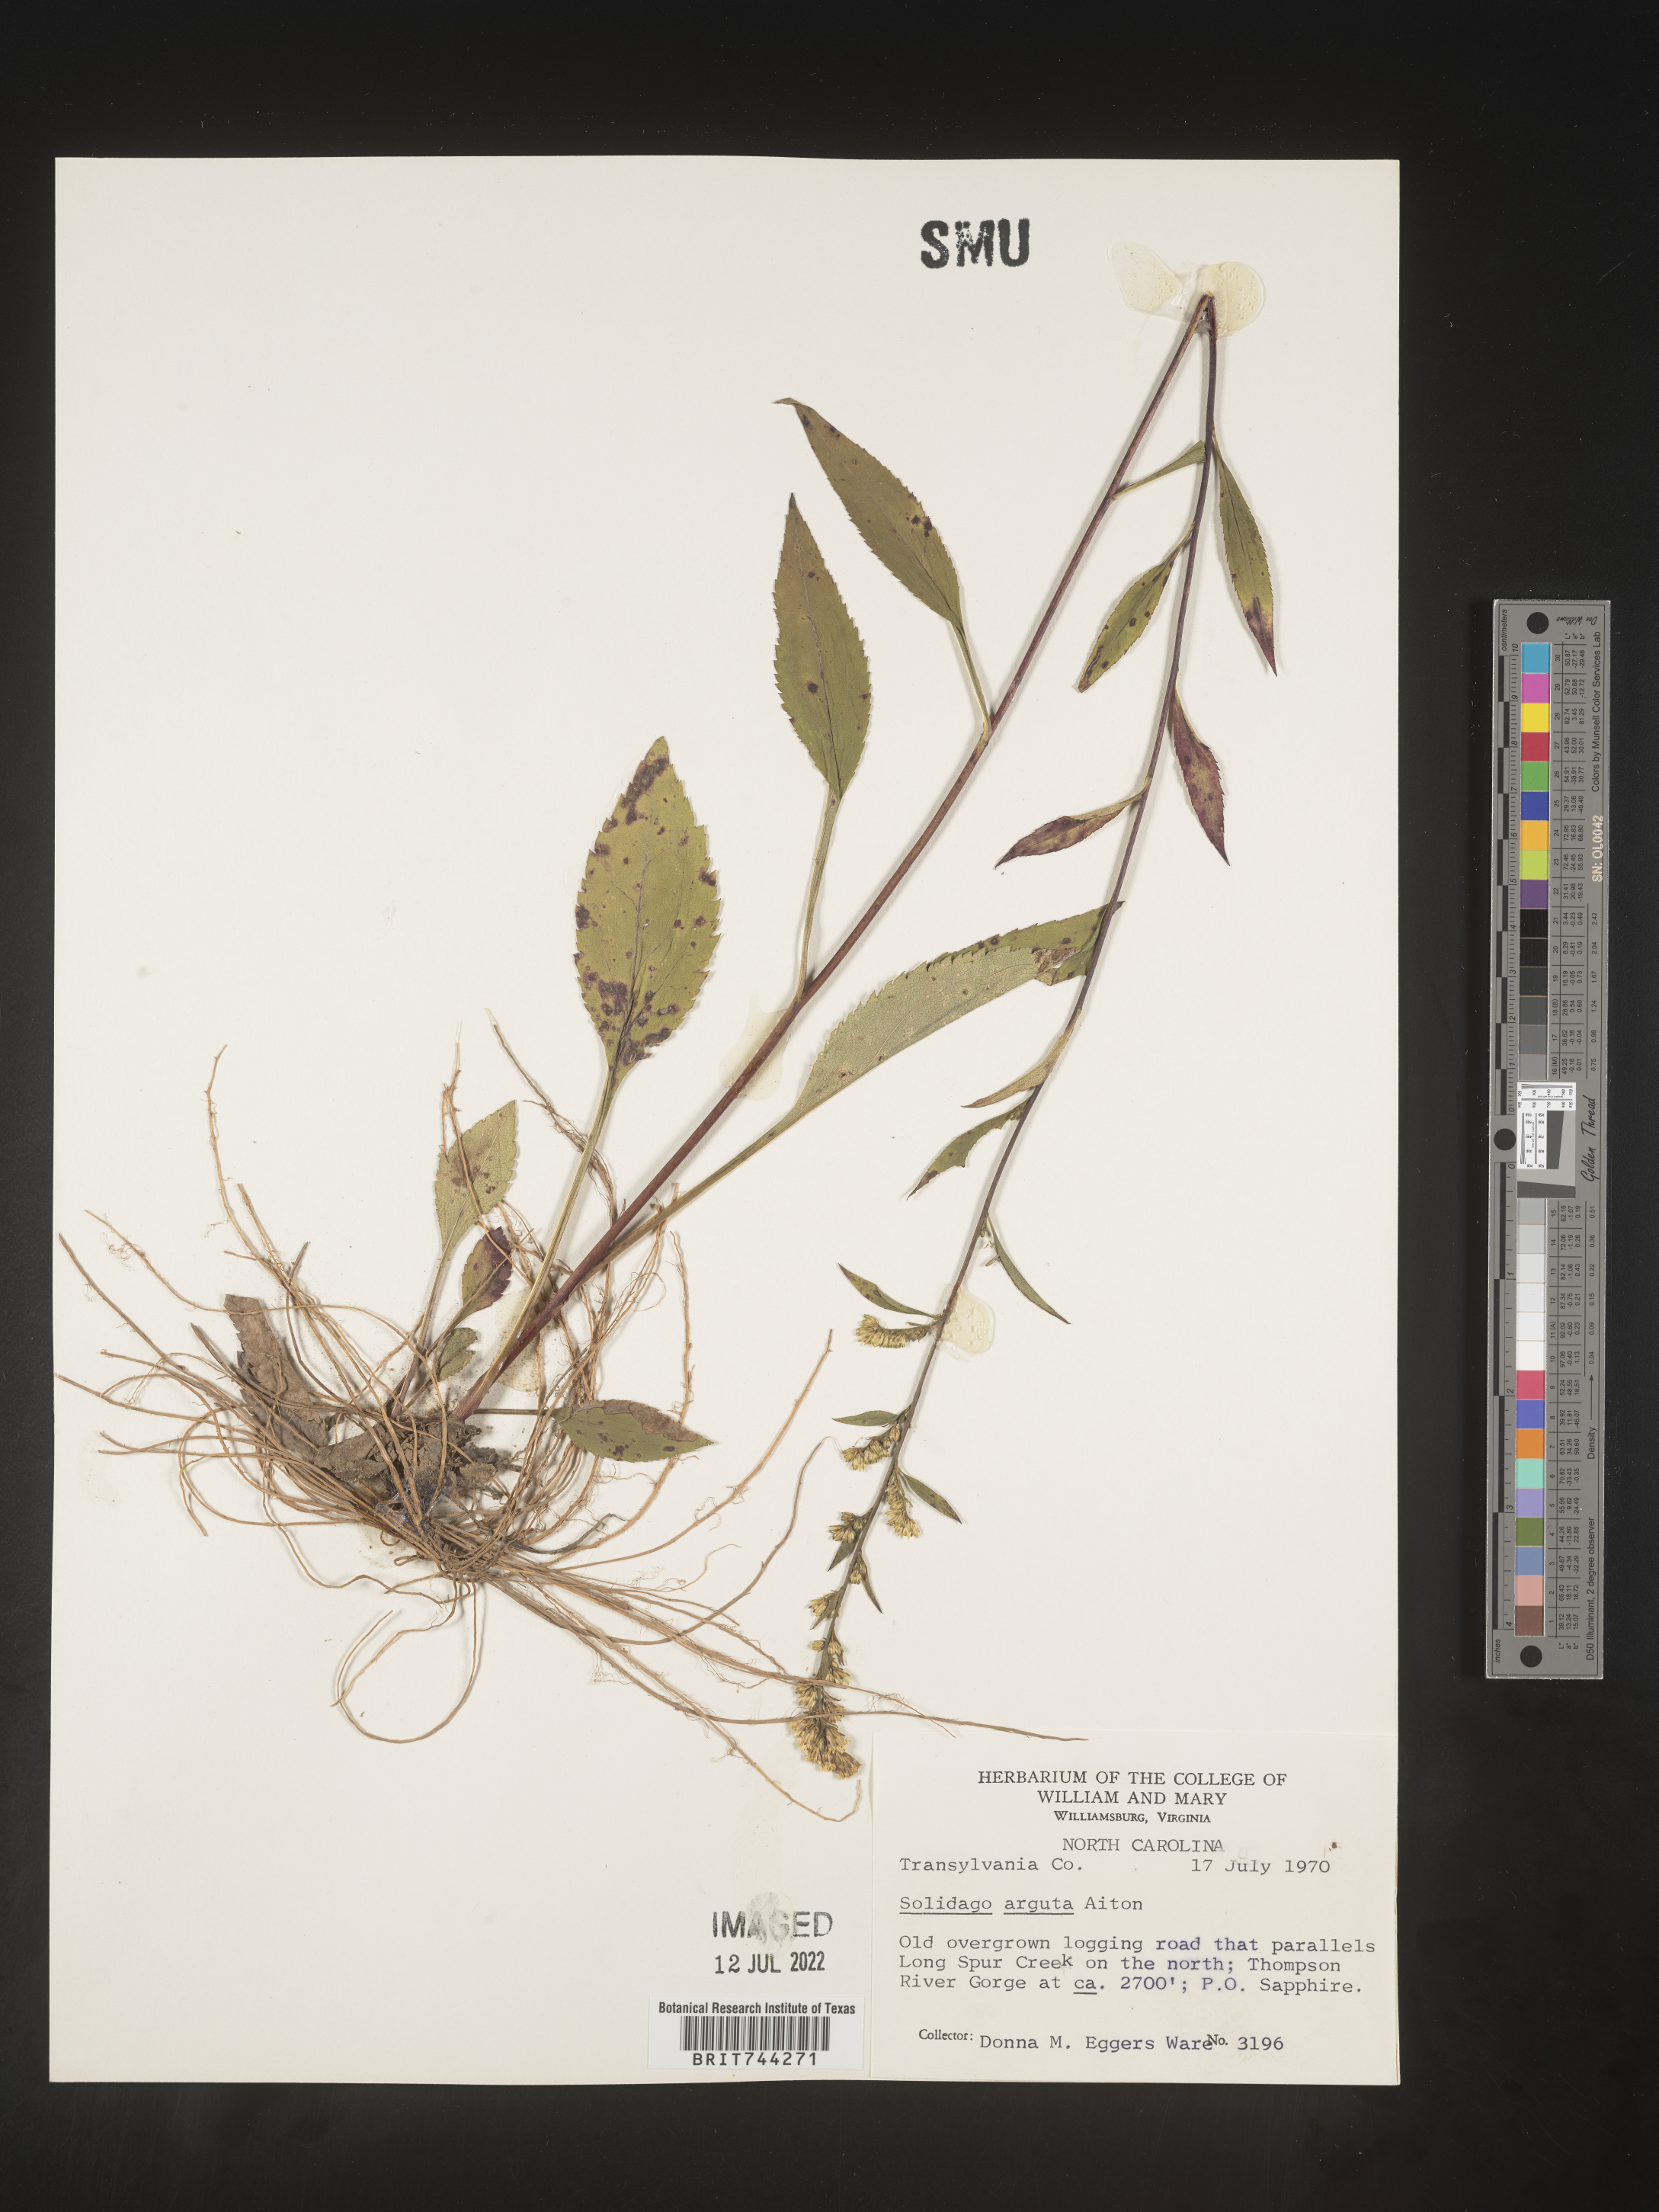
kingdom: Plantae
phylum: Tracheophyta
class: Magnoliopsida
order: Asterales
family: Asteraceae
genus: Solidago
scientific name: Solidago vaseyi
